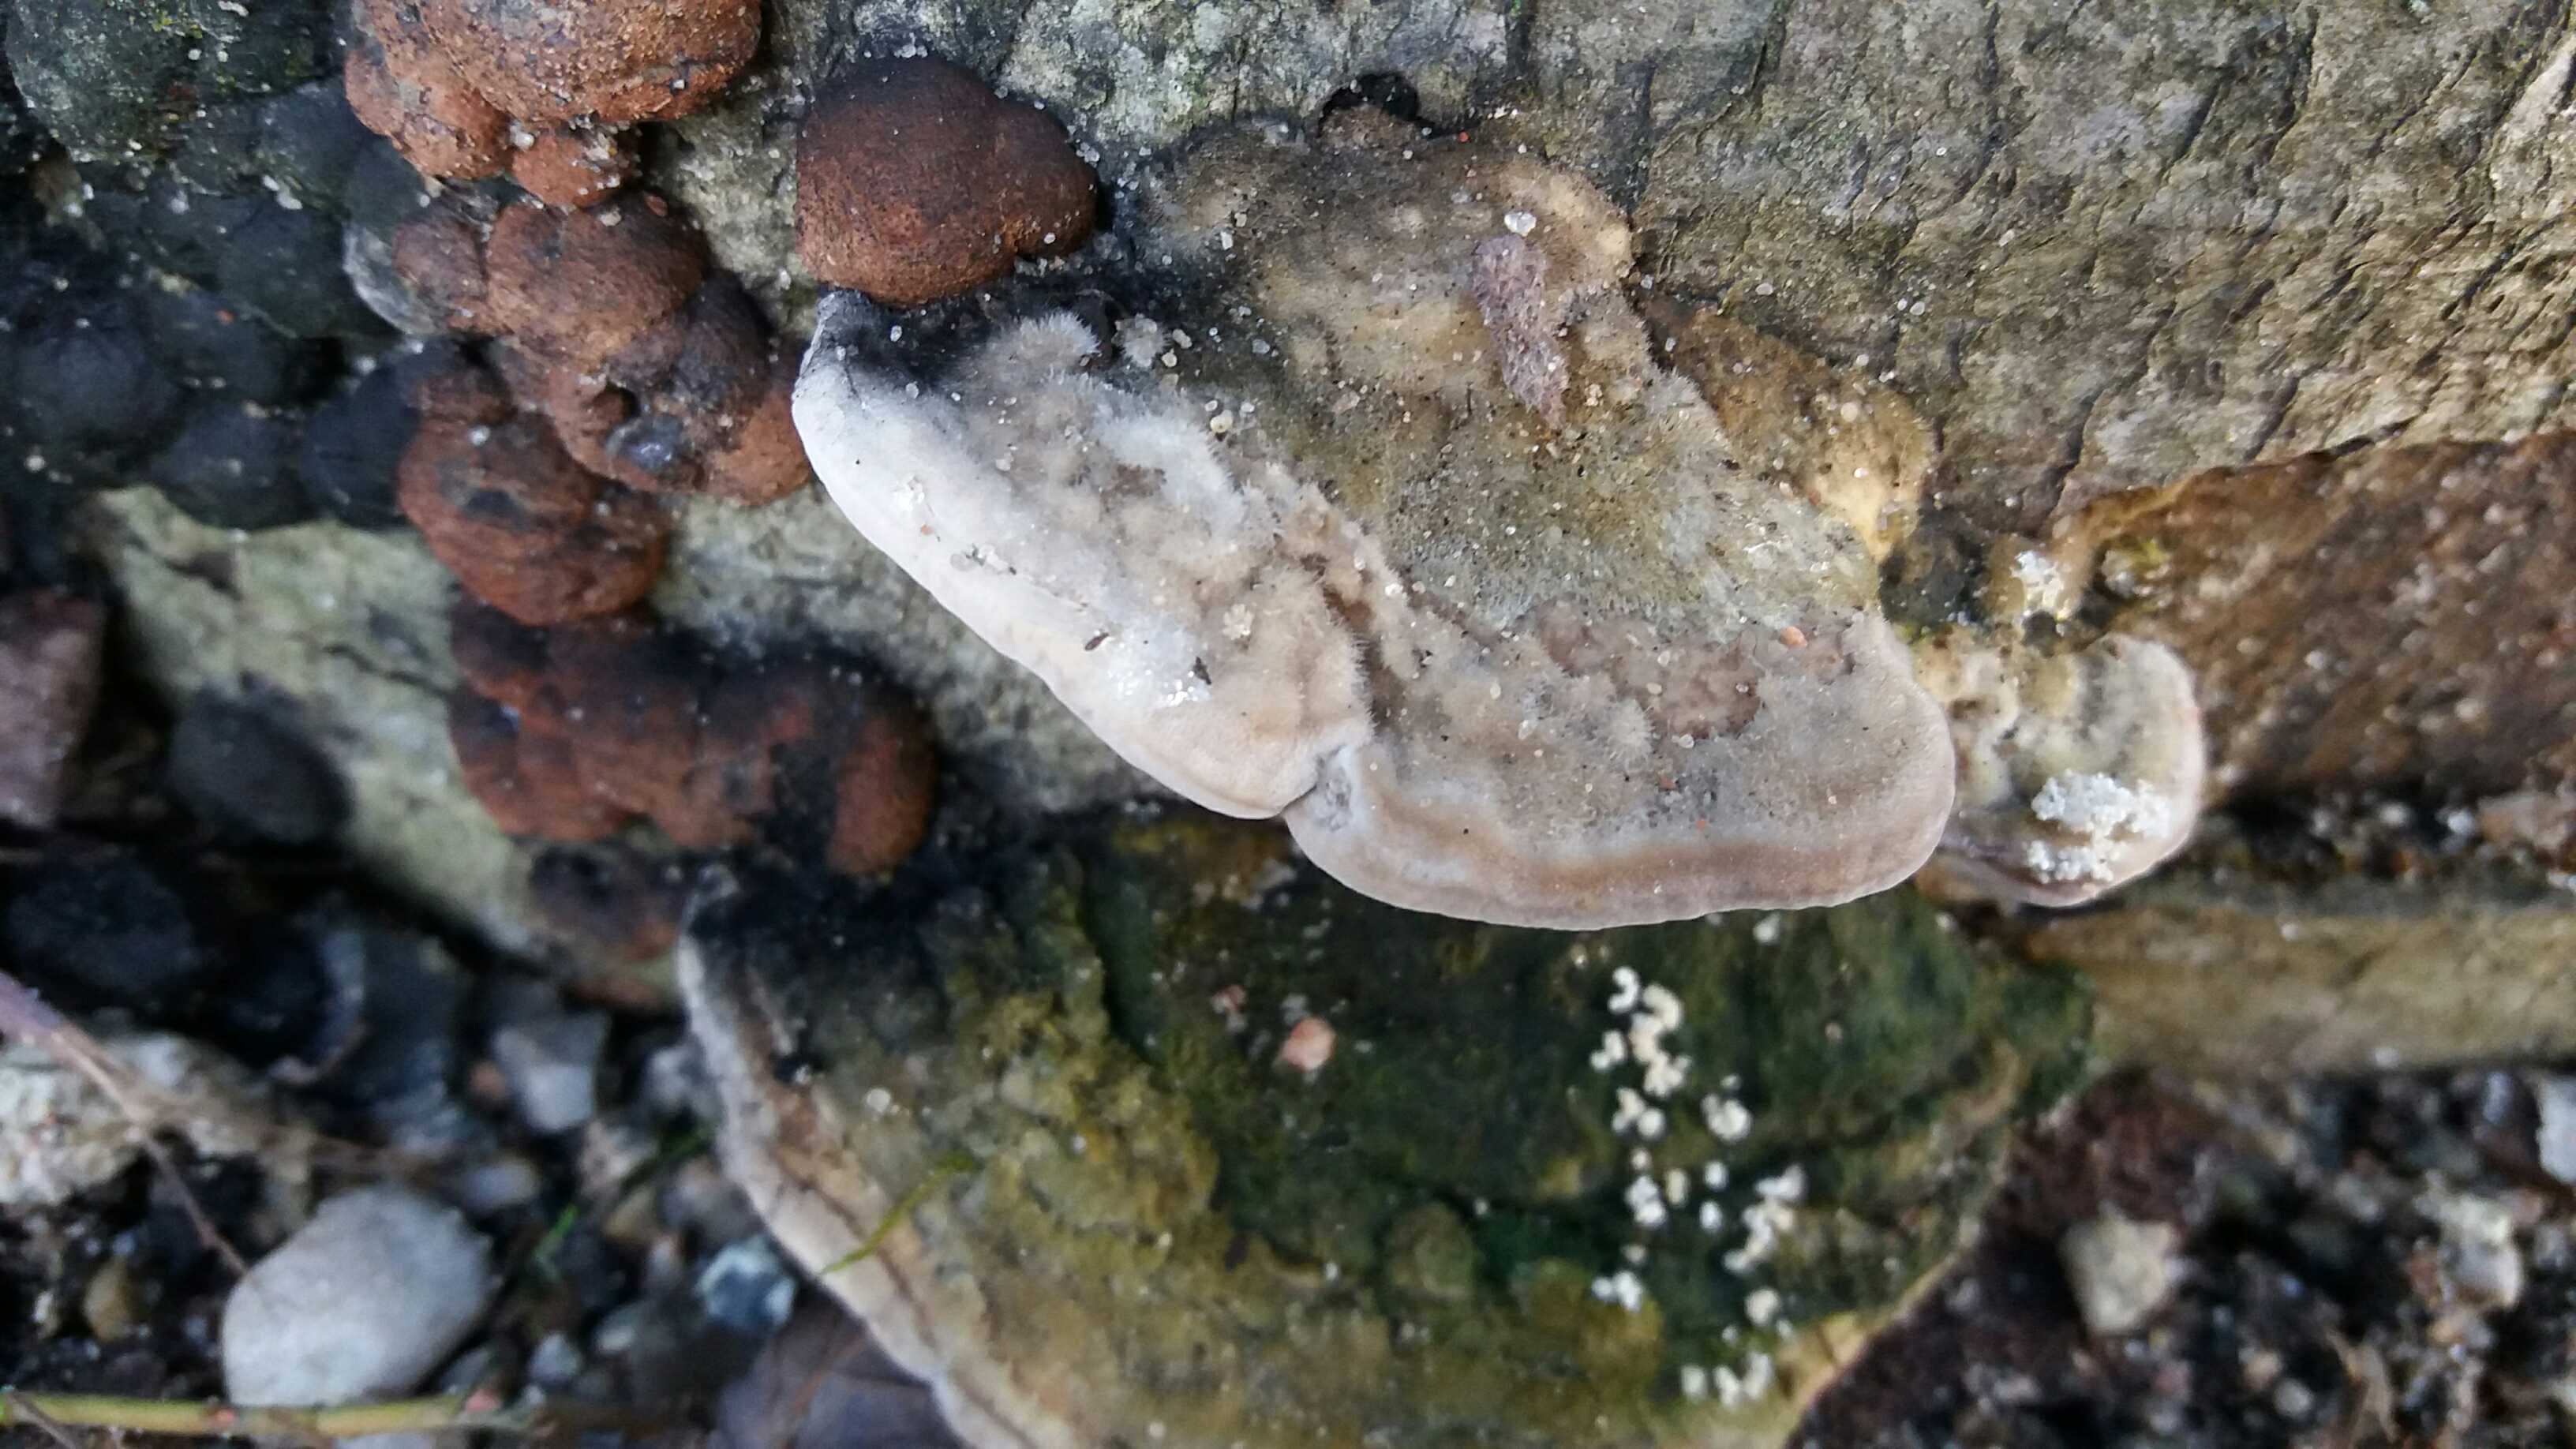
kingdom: Fungi
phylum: Basidiomycota
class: Agaricomycetes
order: Polyporales
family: Polyporaceae
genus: Trametes
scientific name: Trametes hirsuta
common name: håret læderporesvamp
